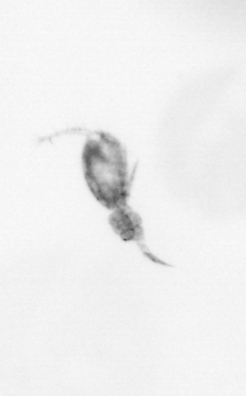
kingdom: Animalia
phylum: Arthropoda
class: Copepoda
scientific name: Copepoda
